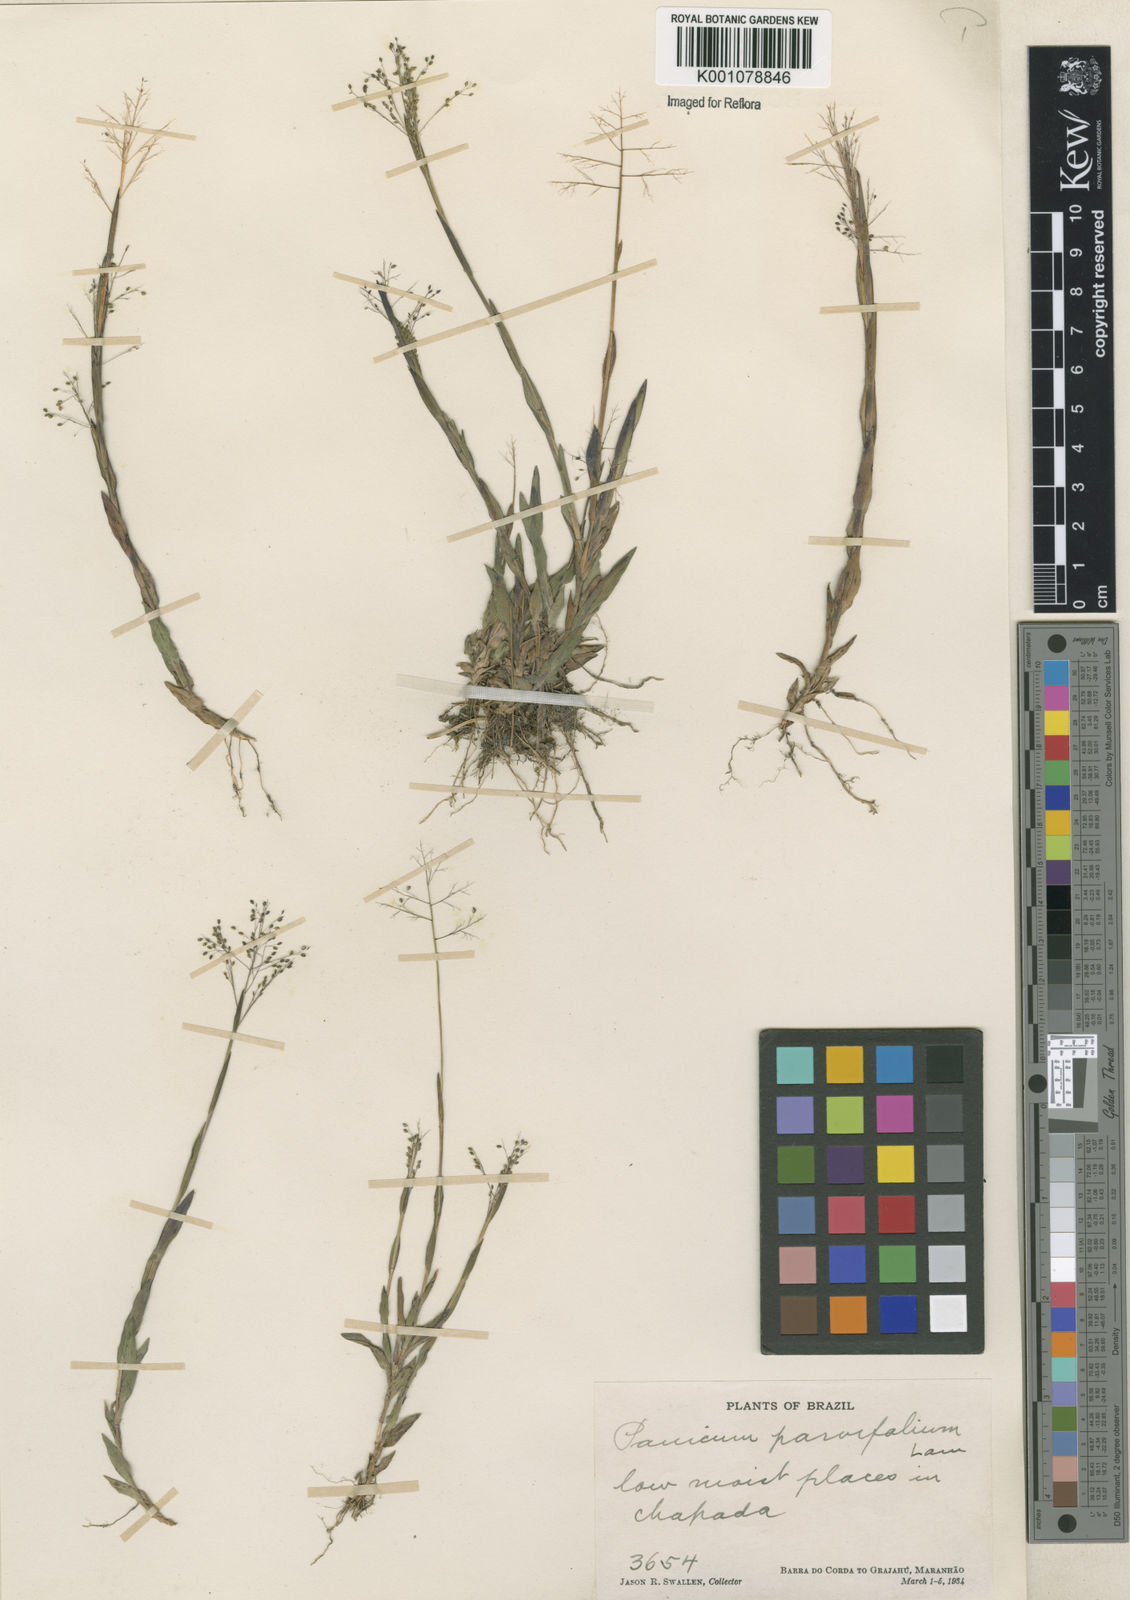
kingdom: Plantae
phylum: Tracheophyta
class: Liliopsida
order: Poales
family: Poaceae
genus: Trichanthecium
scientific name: Trichanthecium parvifolium
